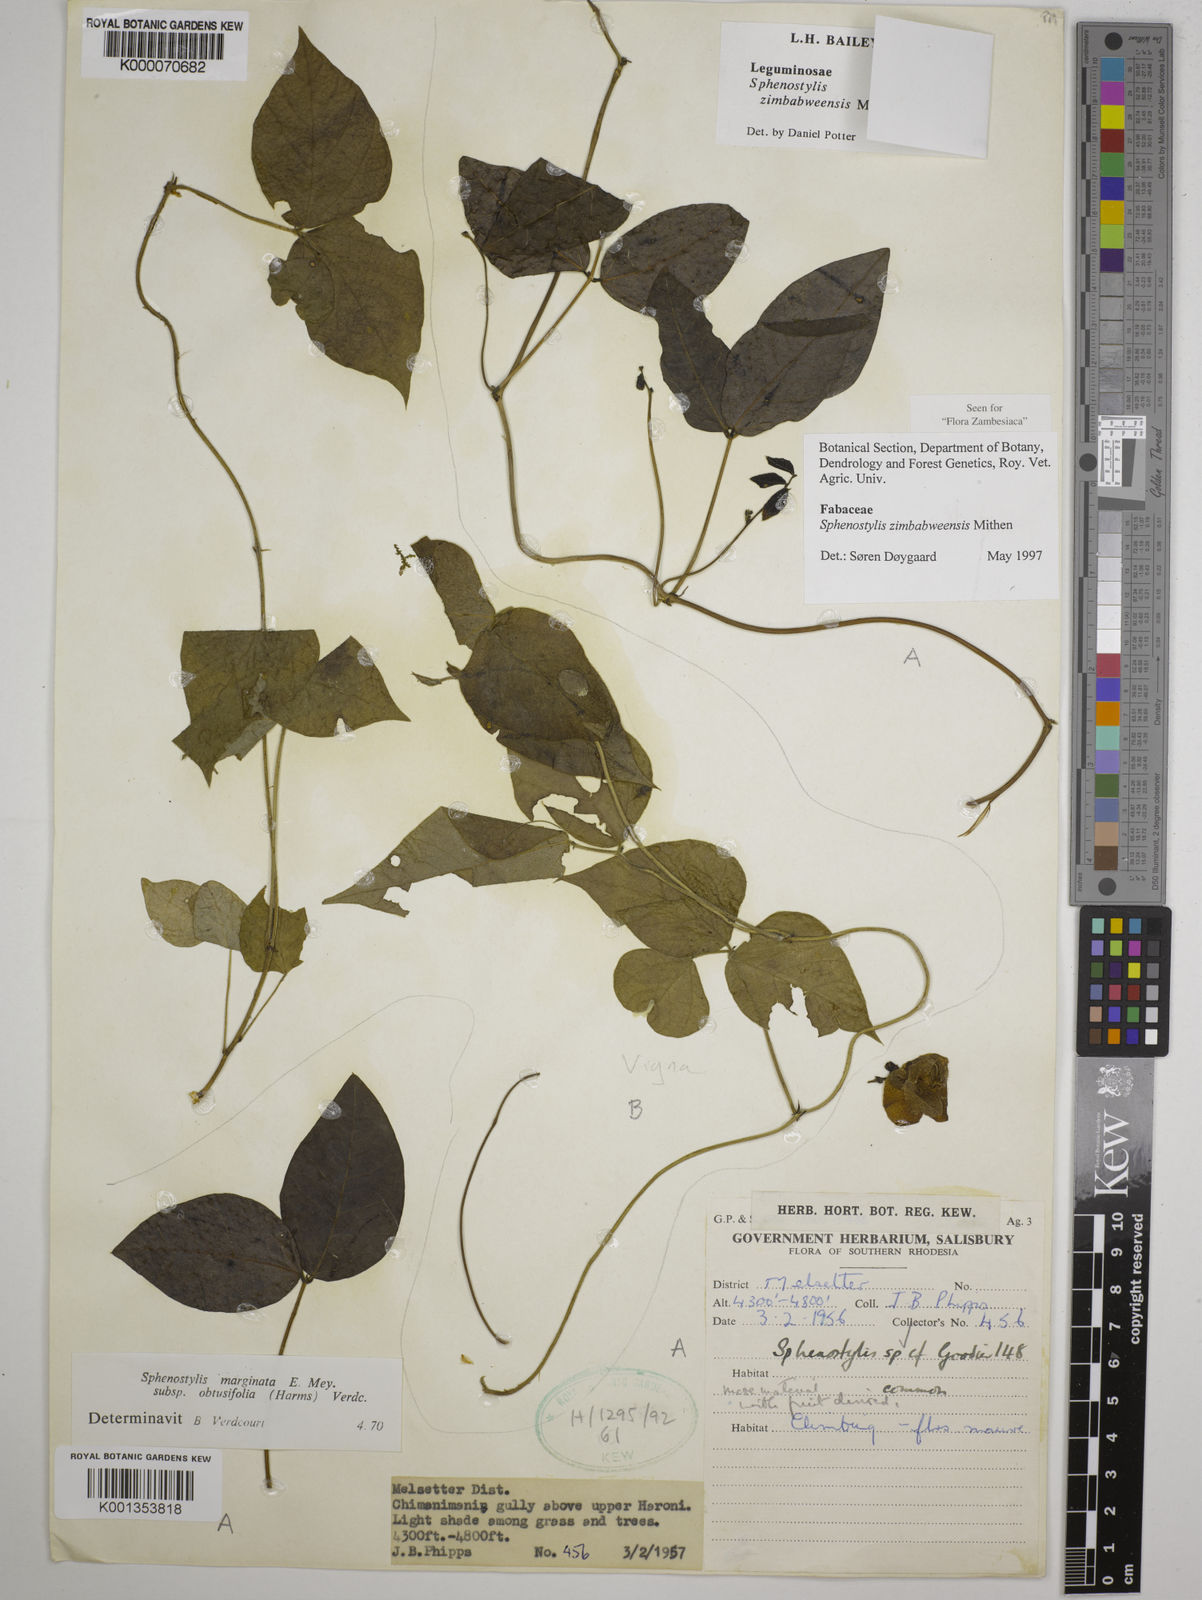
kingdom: Plantae
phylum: Tracheophyta
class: Magnoliopsida
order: Fabales
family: Fabaceae
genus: Sphenostylis
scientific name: Sphenostylis zimbabweensis
